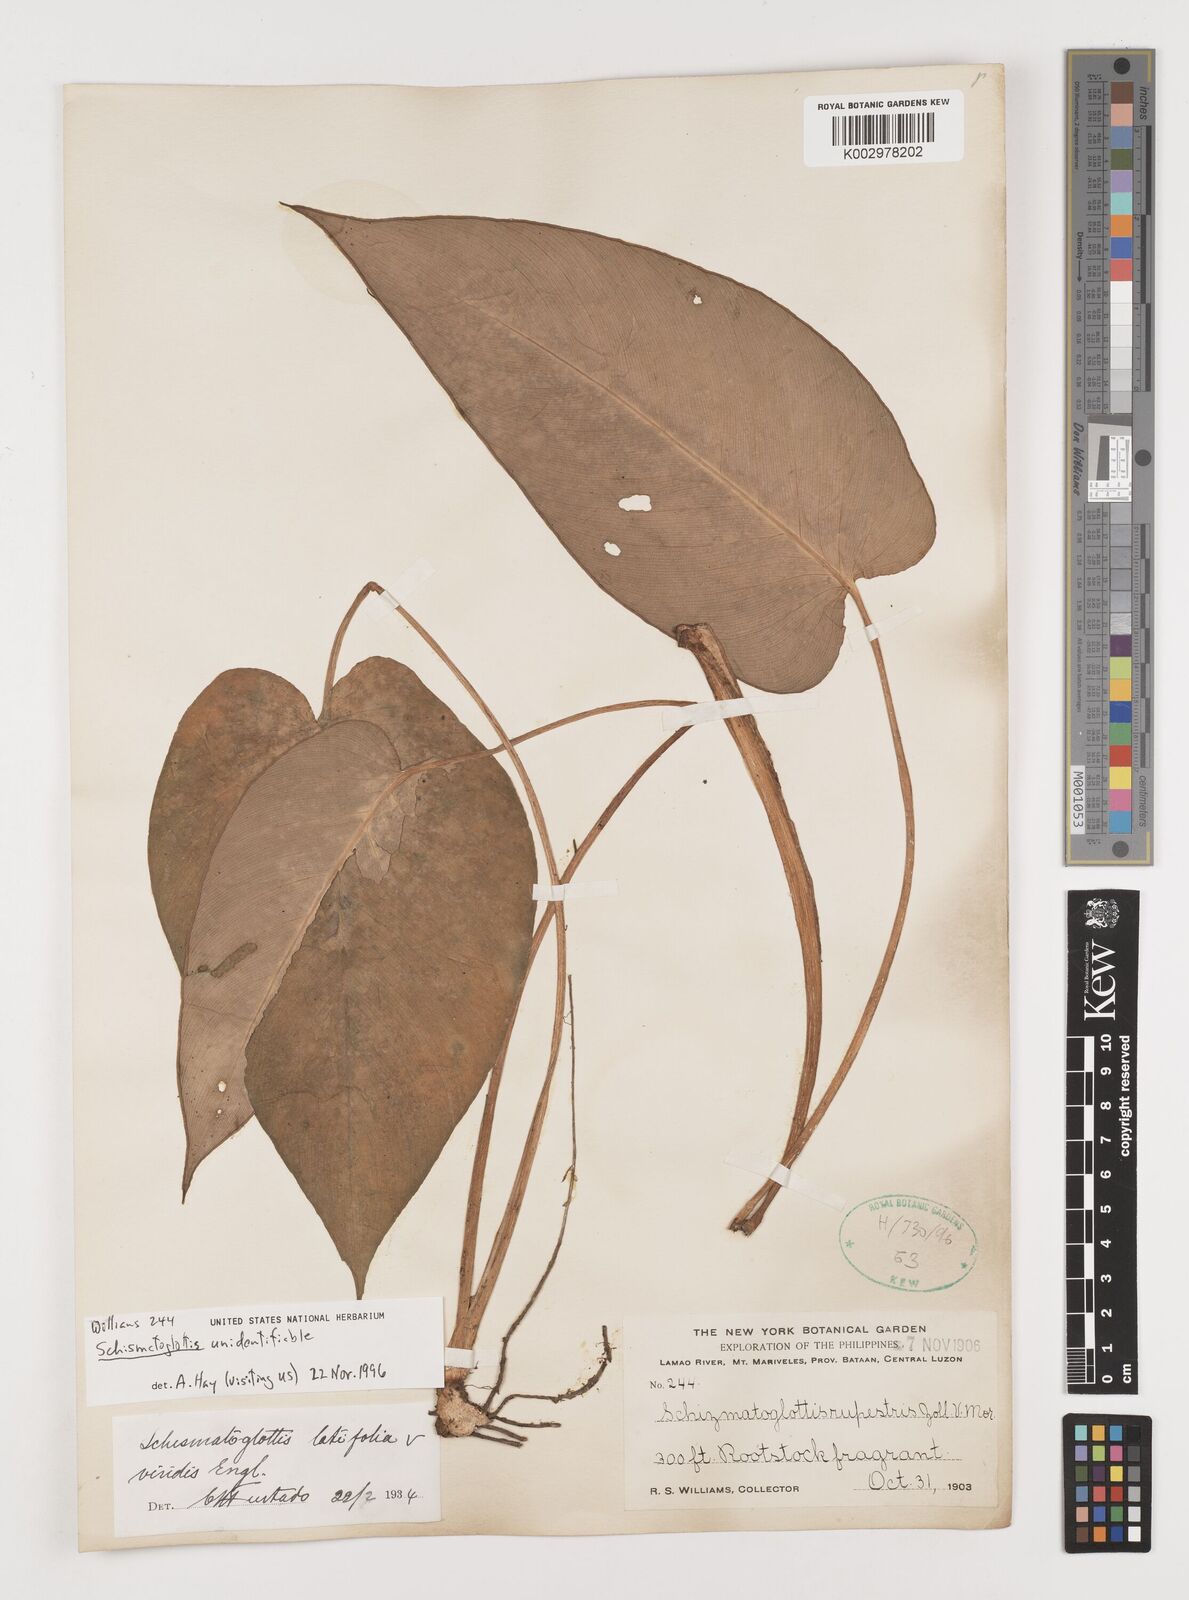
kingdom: Plantae
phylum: Tracheophyta
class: Liliopsida
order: Alismatales
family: Araceae
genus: Schismatoglottis
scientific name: Schismatoglottis
